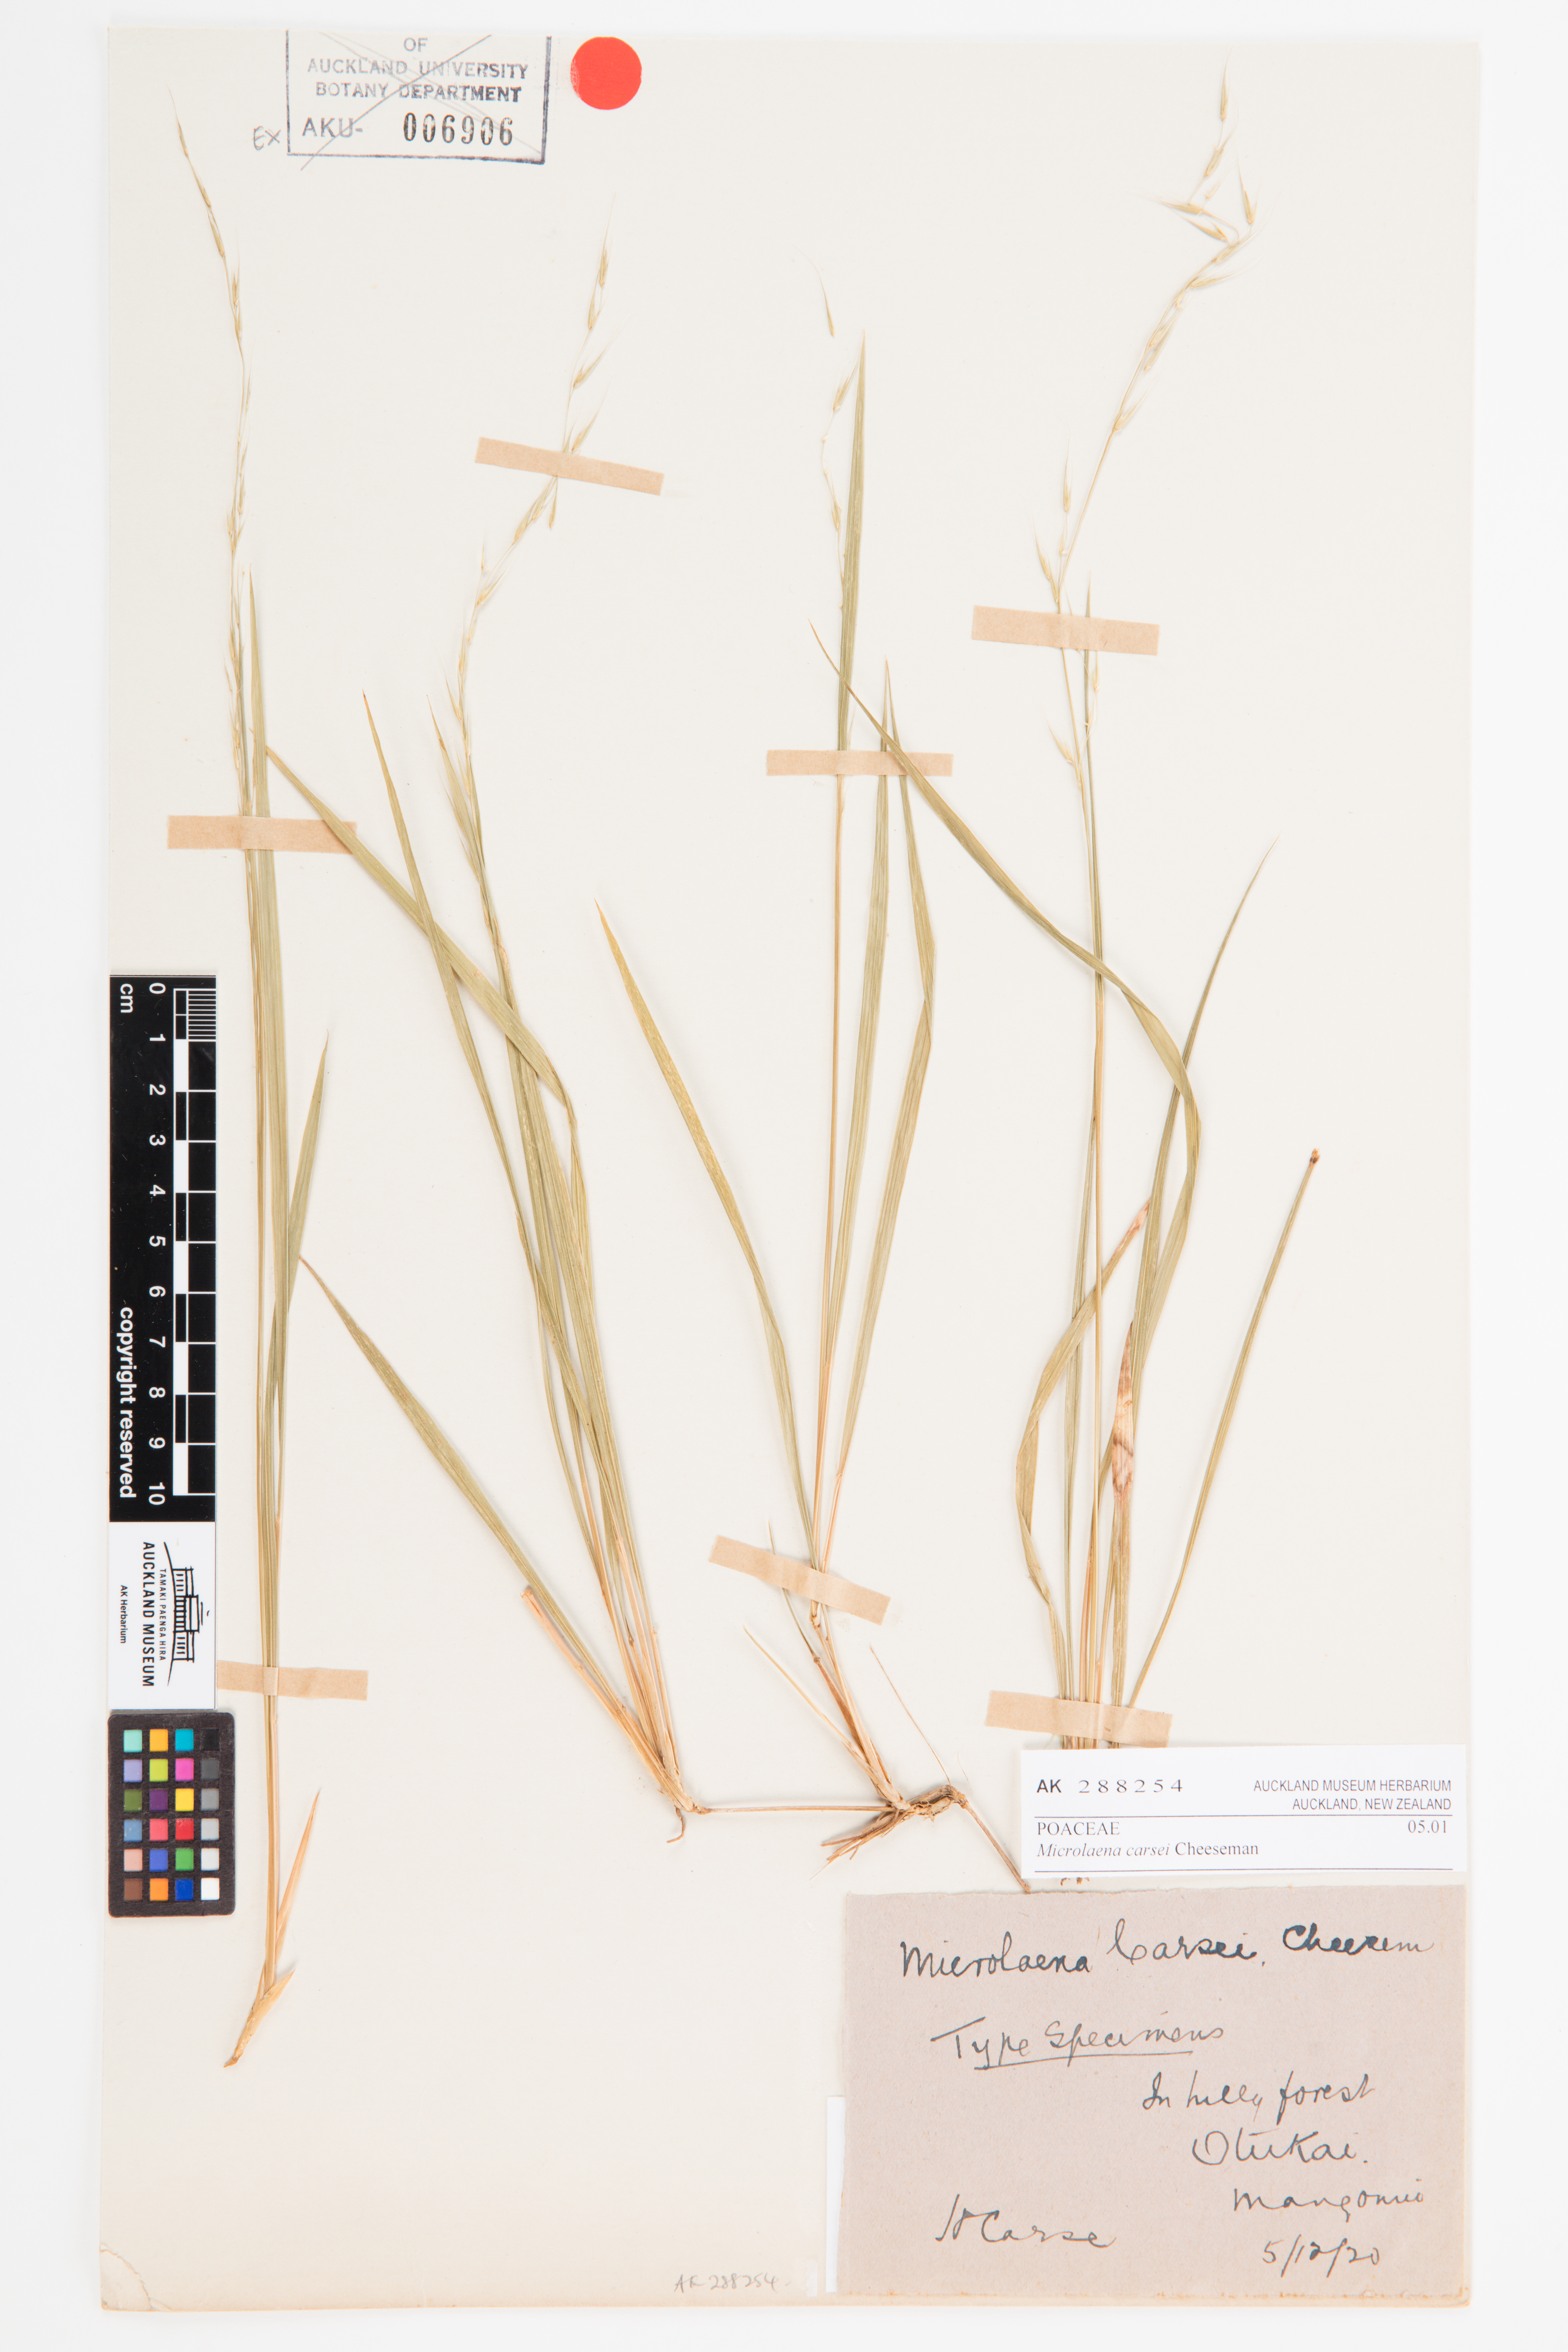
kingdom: Plantae
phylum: Tracheophyta
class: Liliopsida
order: Poales
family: Poaceae
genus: Ehrharta
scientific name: Ehrharta diplax
